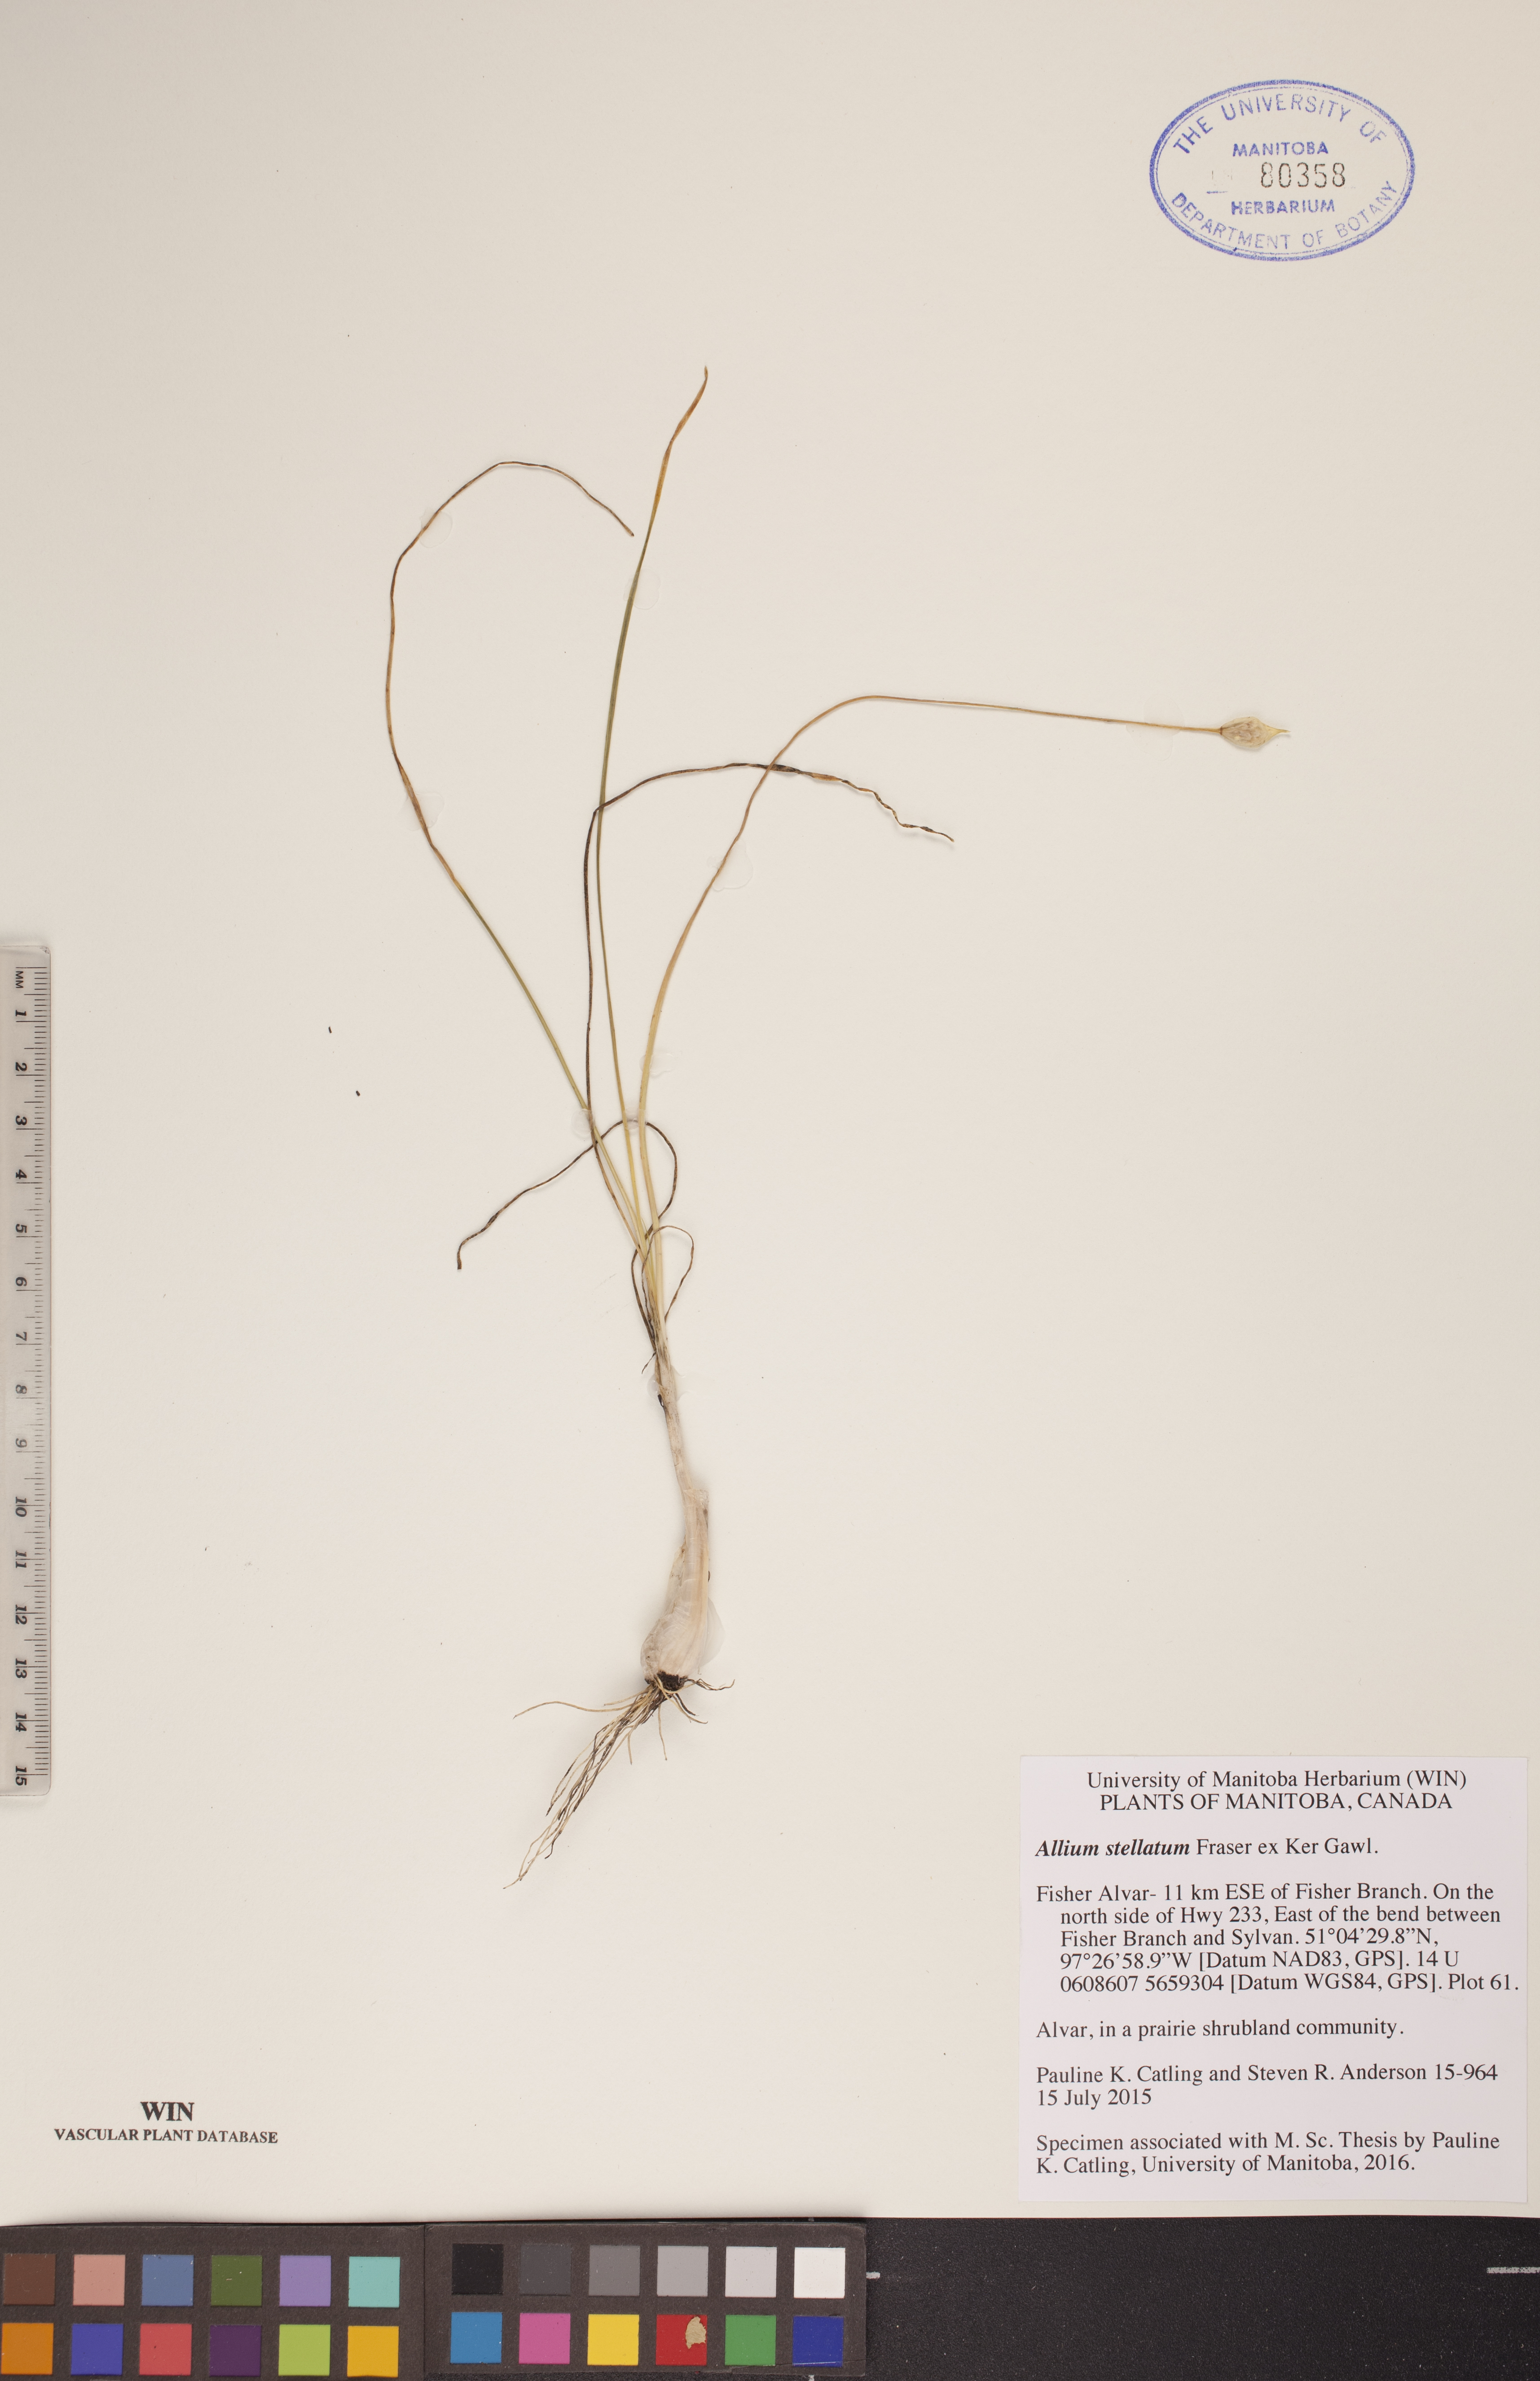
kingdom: Plantae
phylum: Tracheophyta
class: Liliopsida
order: Asparagales
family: Amaryllidaceae
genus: Allium
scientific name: Allium stellatum
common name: Autumn onion
